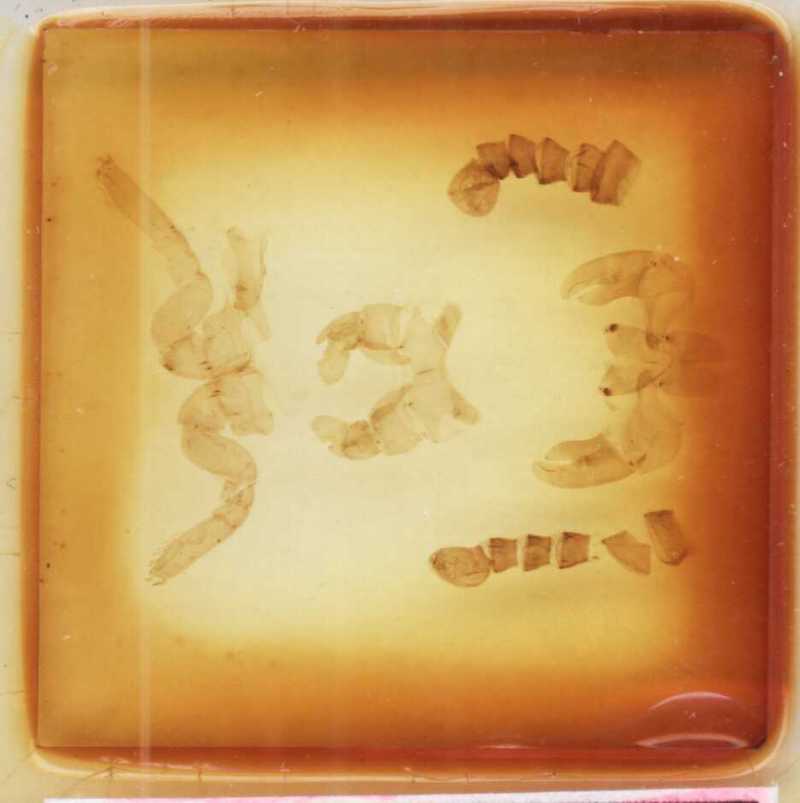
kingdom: Animalia
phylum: Arthropoda
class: Diplopoda
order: Sphaerotheriida
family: Arthrosphaeridae
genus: Arthrosphaera
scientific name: Arthrosphaera dentigera
